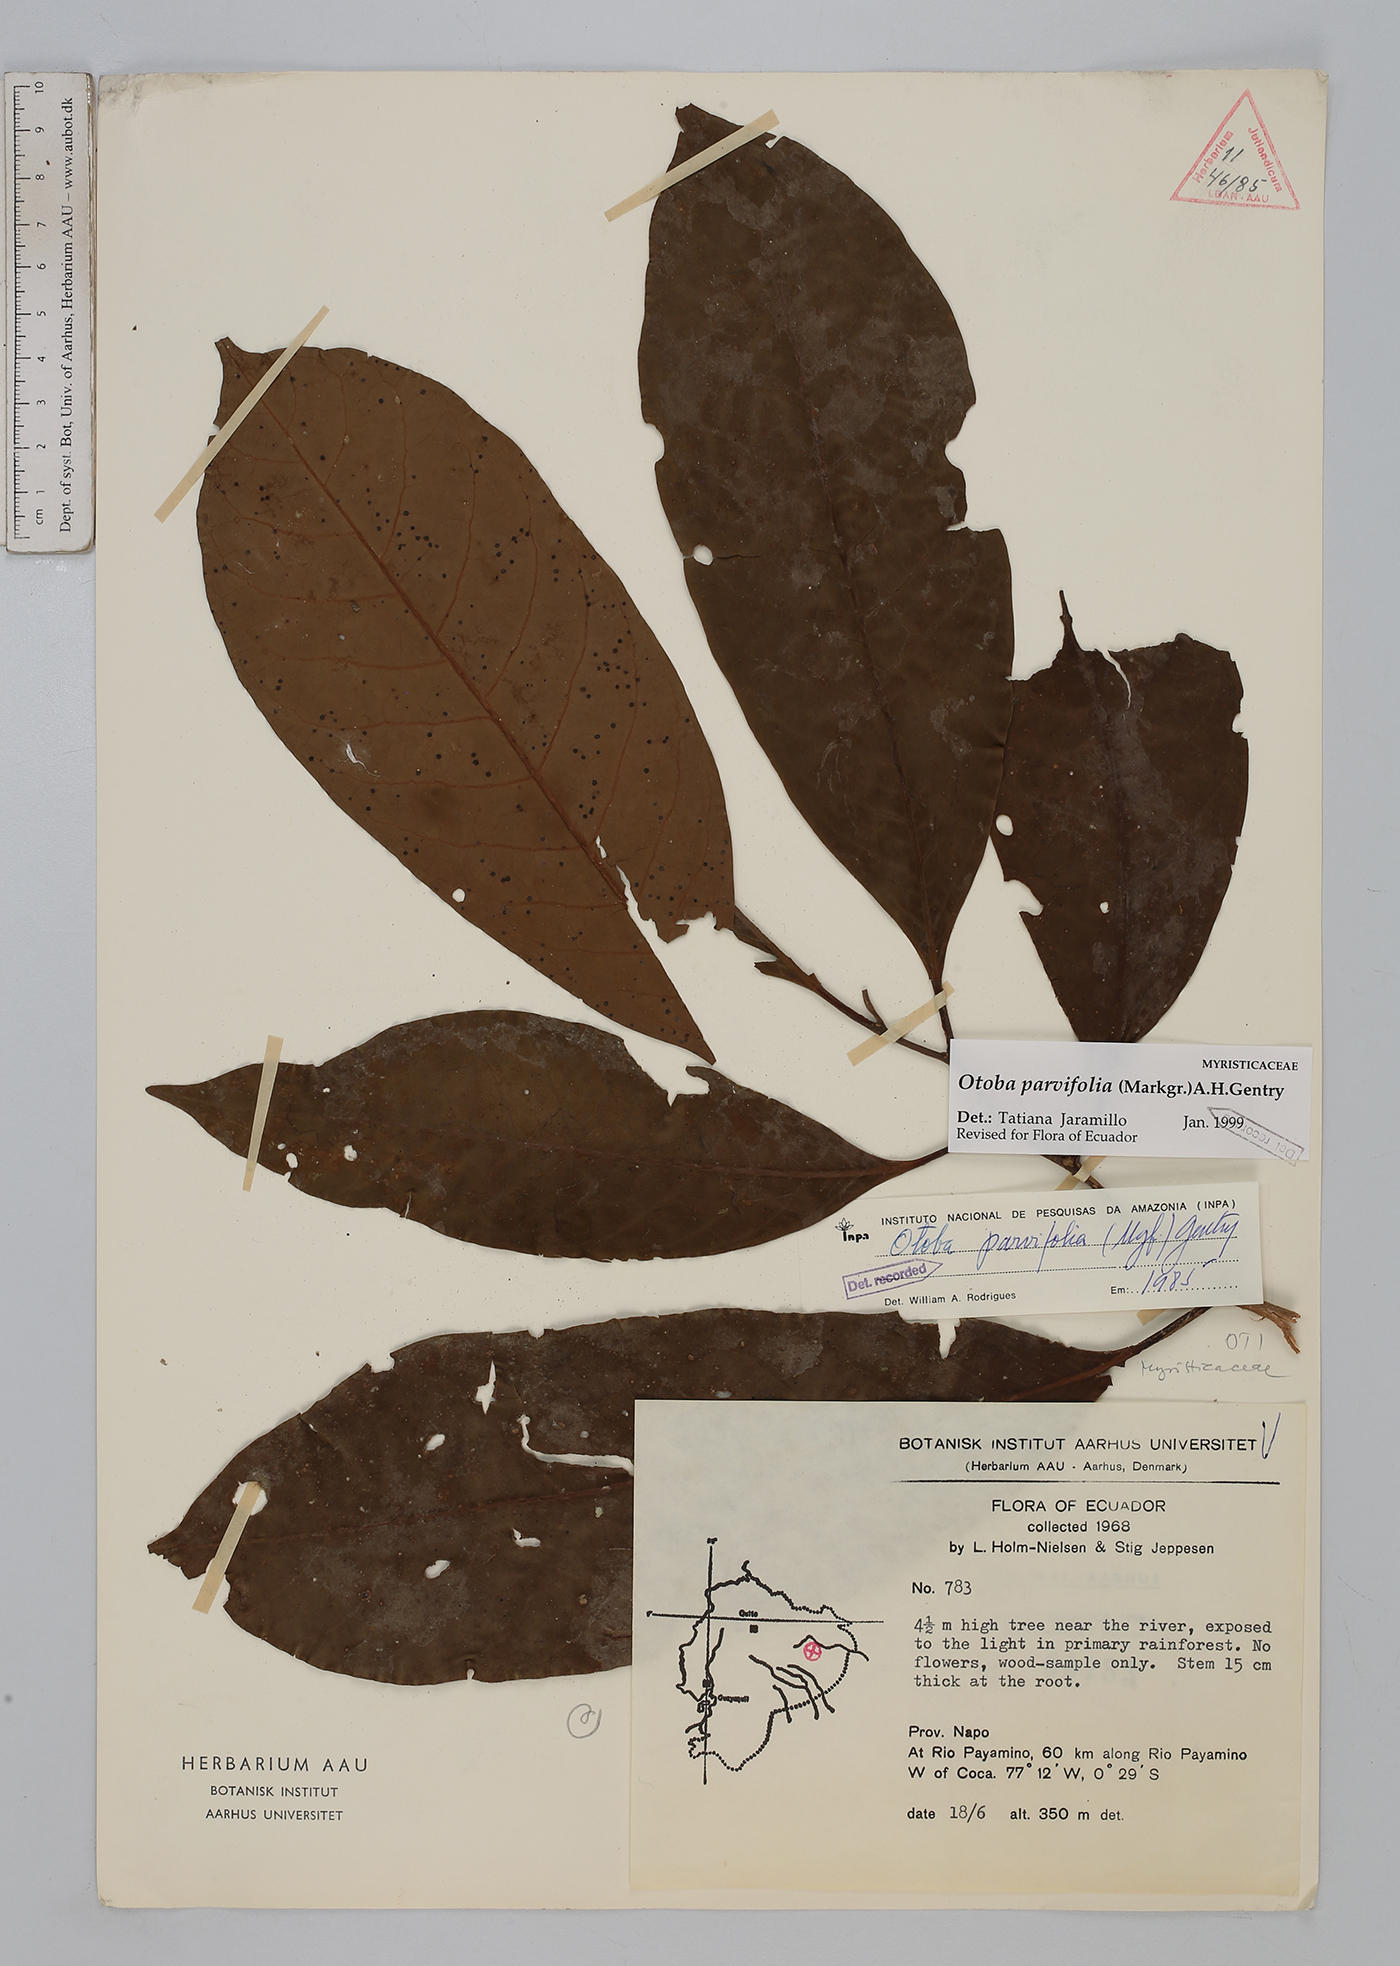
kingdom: Plantae
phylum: Tracheophyta
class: Magnoliopsida
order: Magnoliales
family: Myristicaceae
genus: Otoba
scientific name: Otoba parvifolia
